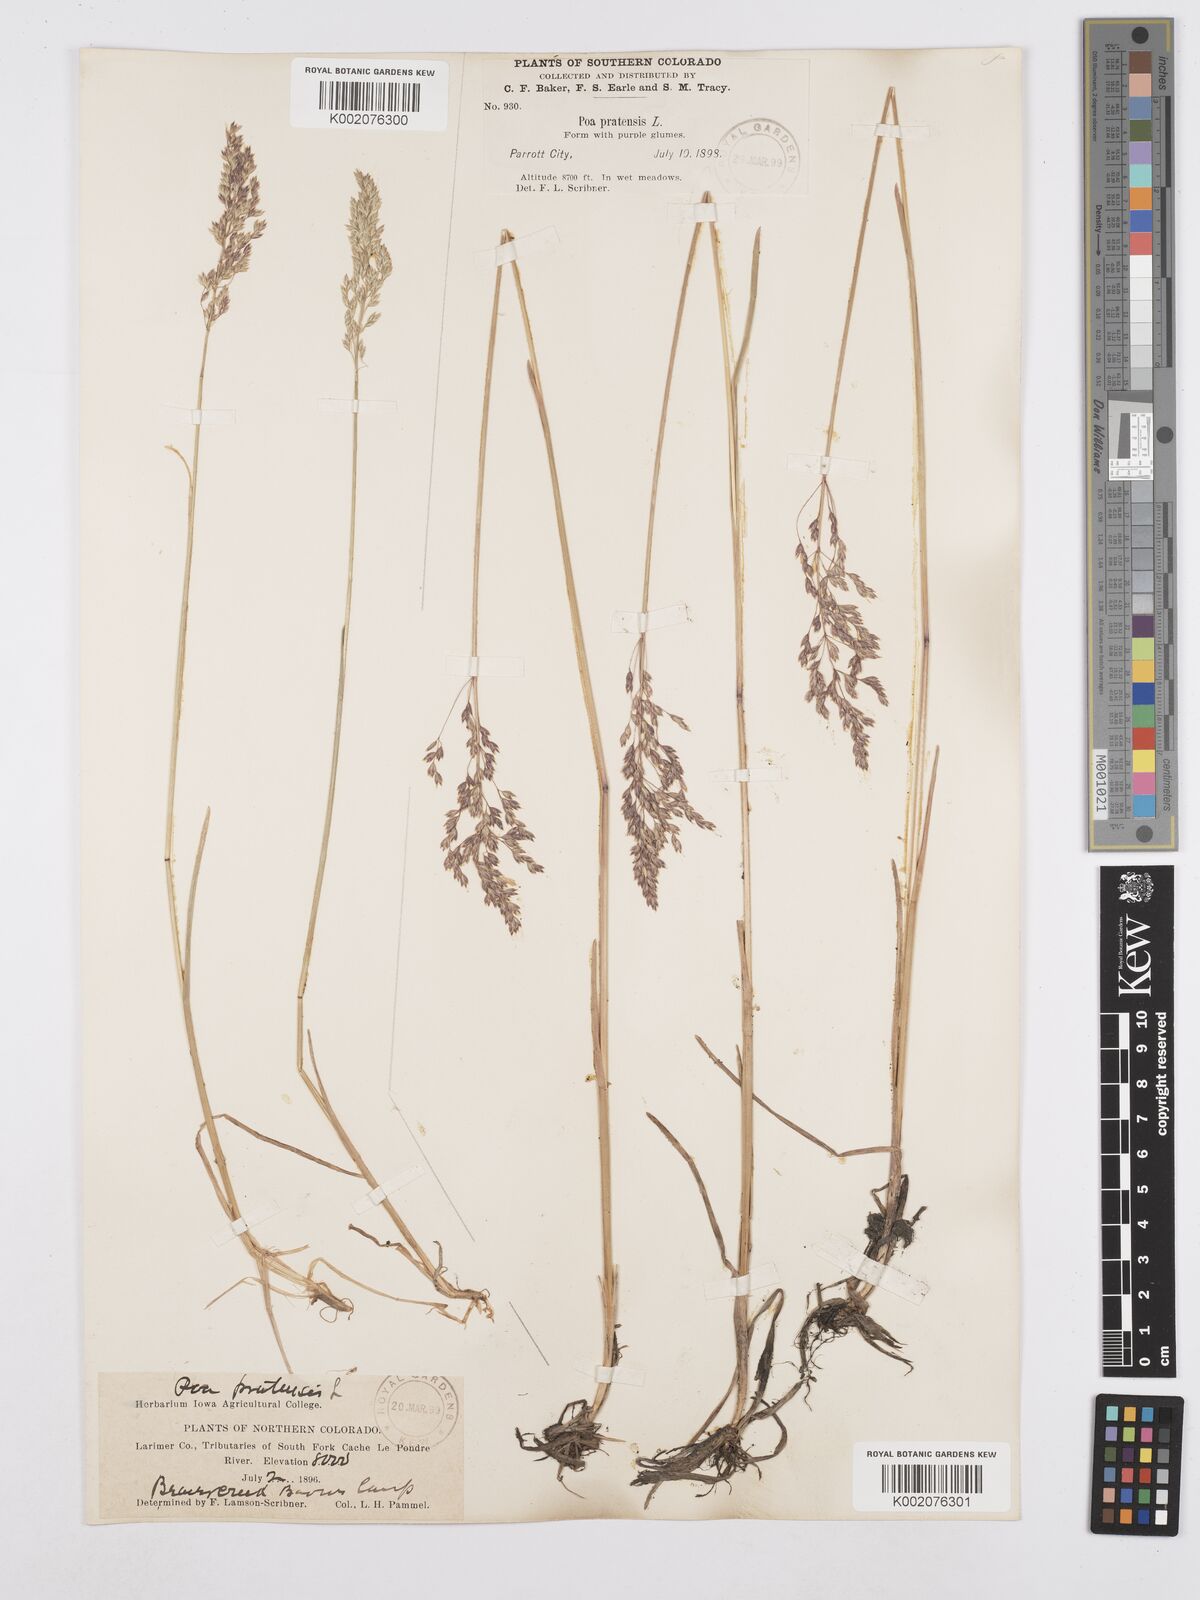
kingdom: Plantae
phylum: Tracheophyta
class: Liliopsida
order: Poales
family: Poaceae
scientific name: Poaceae
